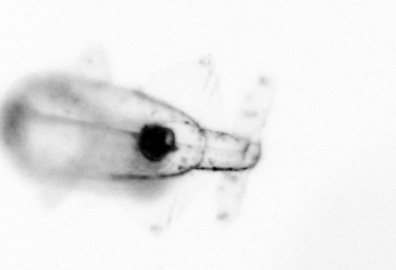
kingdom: Animalia
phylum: Chaetognatha
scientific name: Chaetognatha
